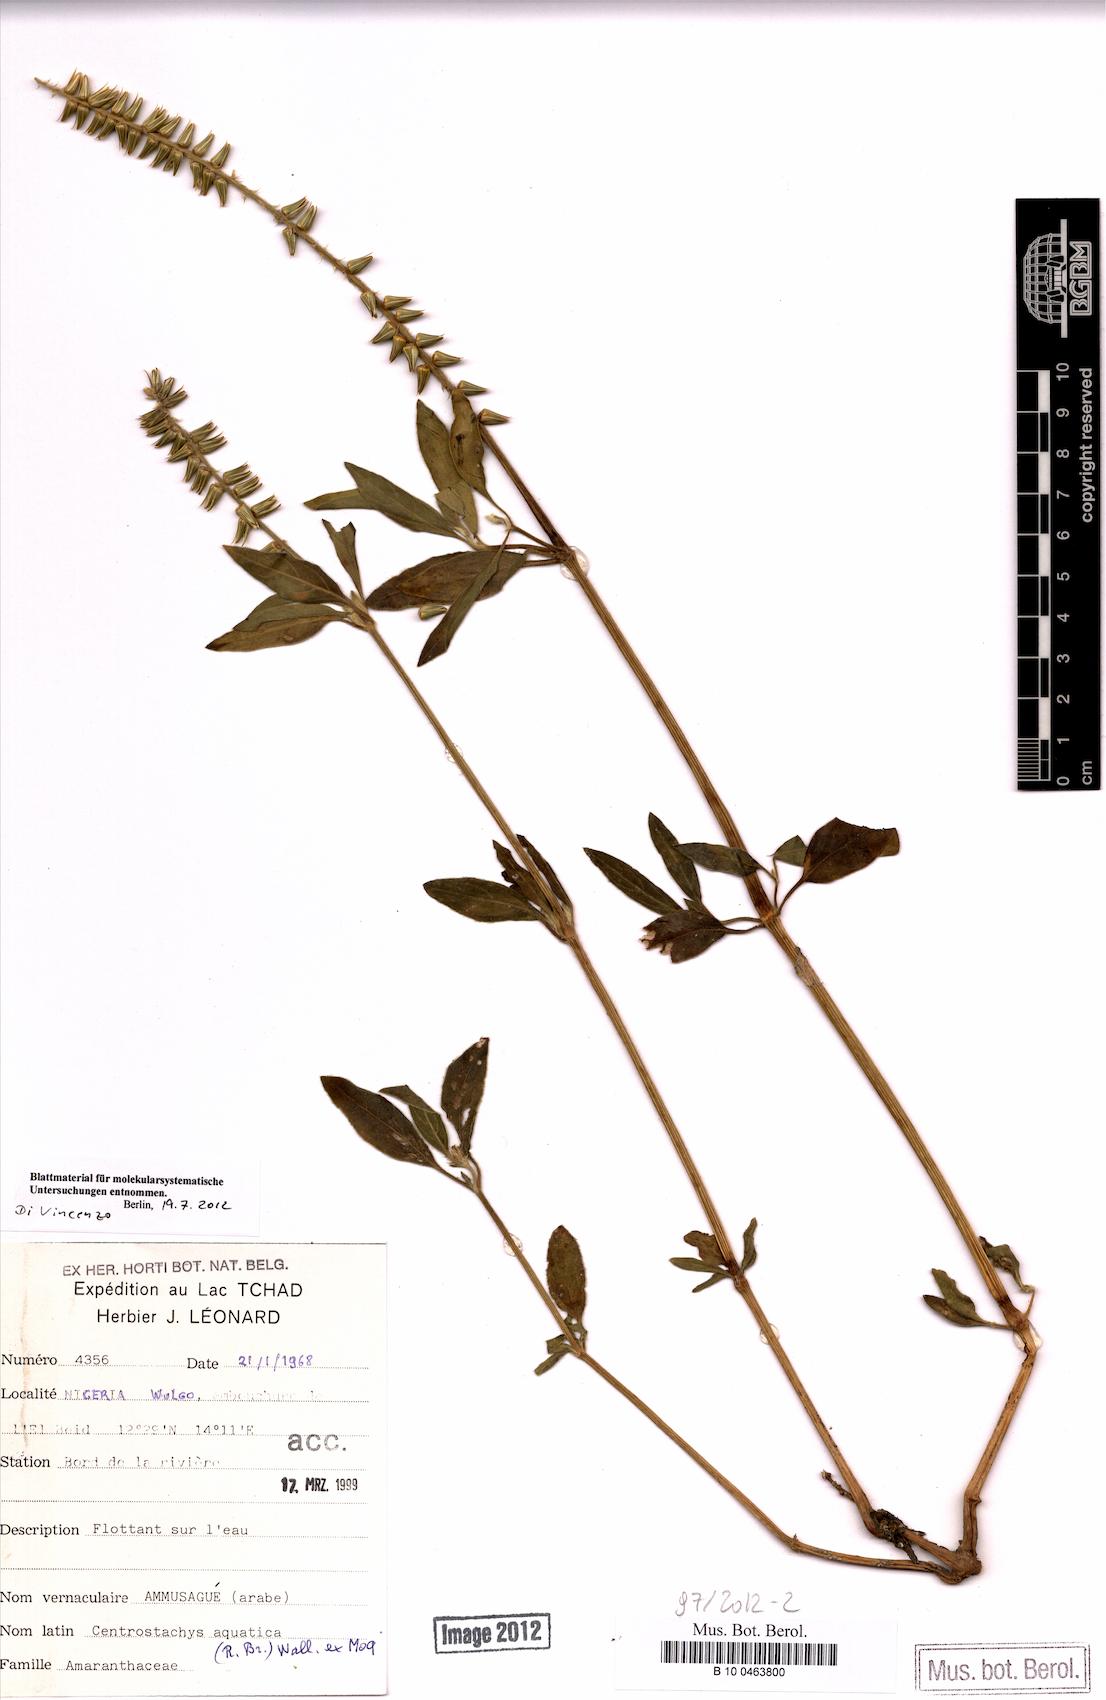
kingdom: Plantae
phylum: Tracheophyta
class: Magnoliopsida
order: Caryophyllales
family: Amaranthaceae
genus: Centrostachys
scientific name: Centrostachys aquatica
